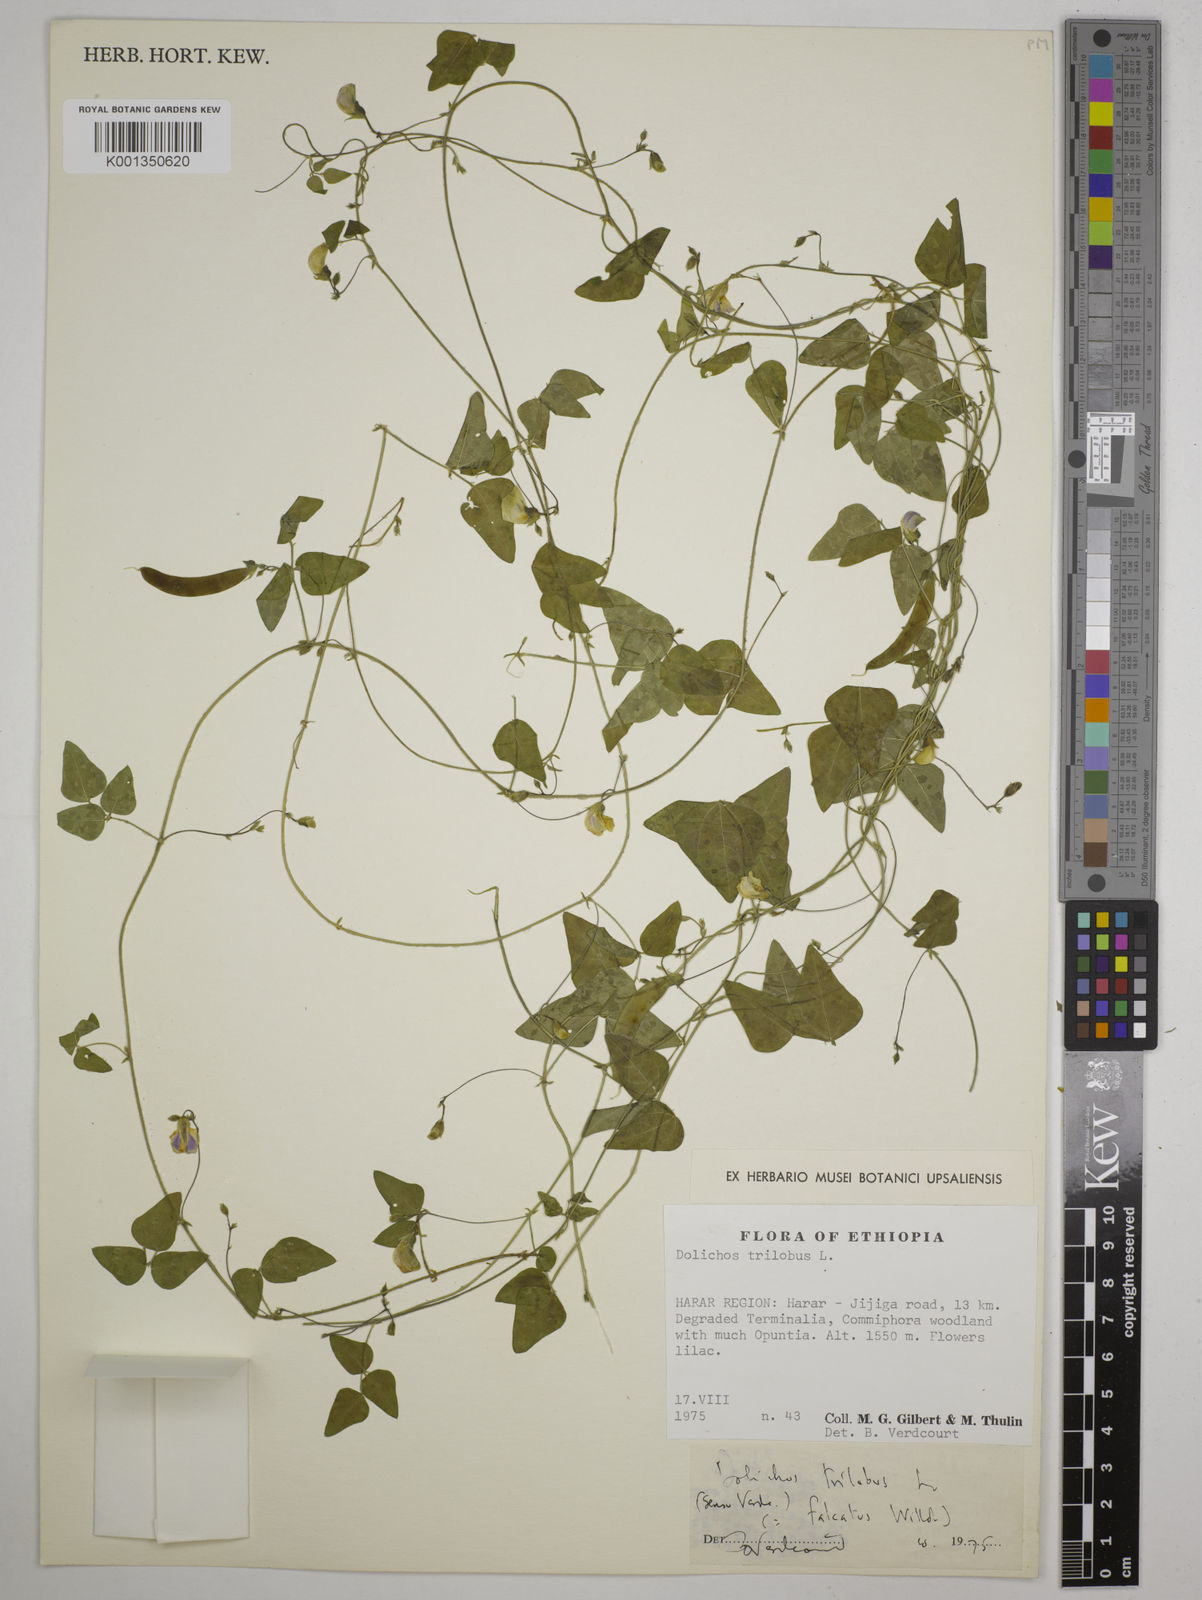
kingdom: Plantae
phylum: Tracheophyta
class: Magnoliopsida
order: Fabales
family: Fabaceae
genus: Dolichos
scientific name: Dolichos trilobus
